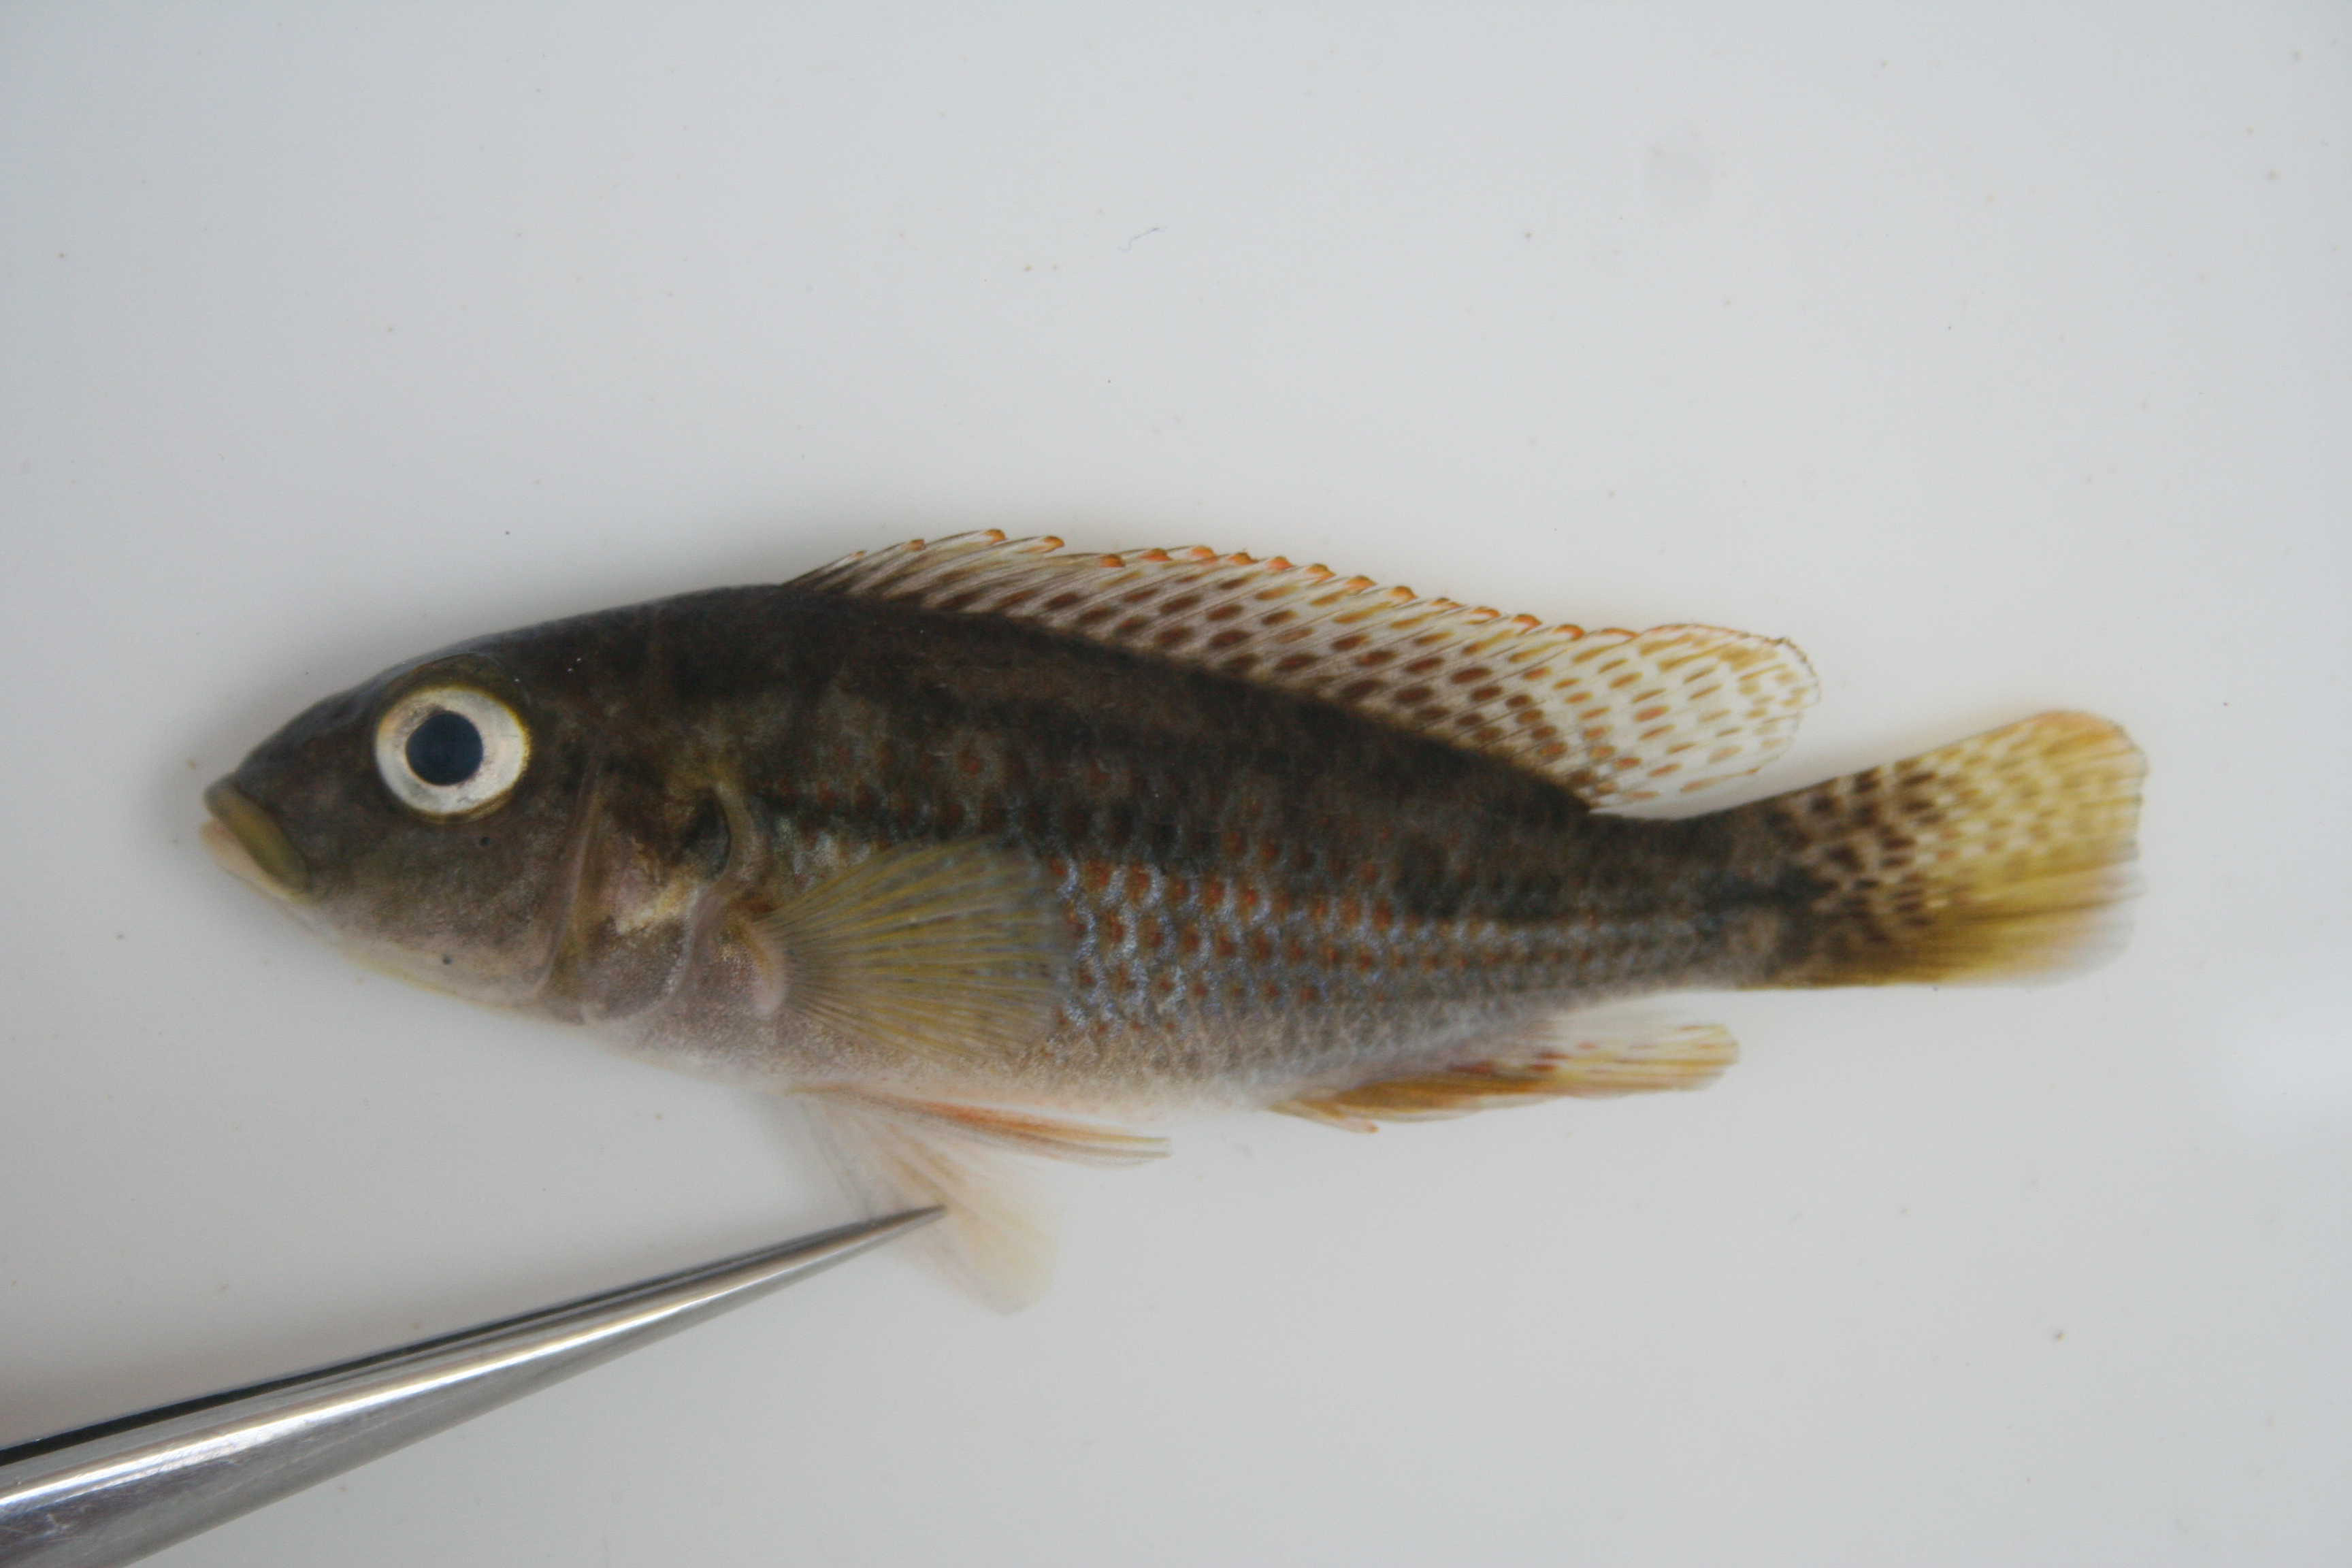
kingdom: Animalia
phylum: Chordata
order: Perciformes
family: Cichlidae
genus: Pharyngochromis
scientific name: Pharyngochromis
